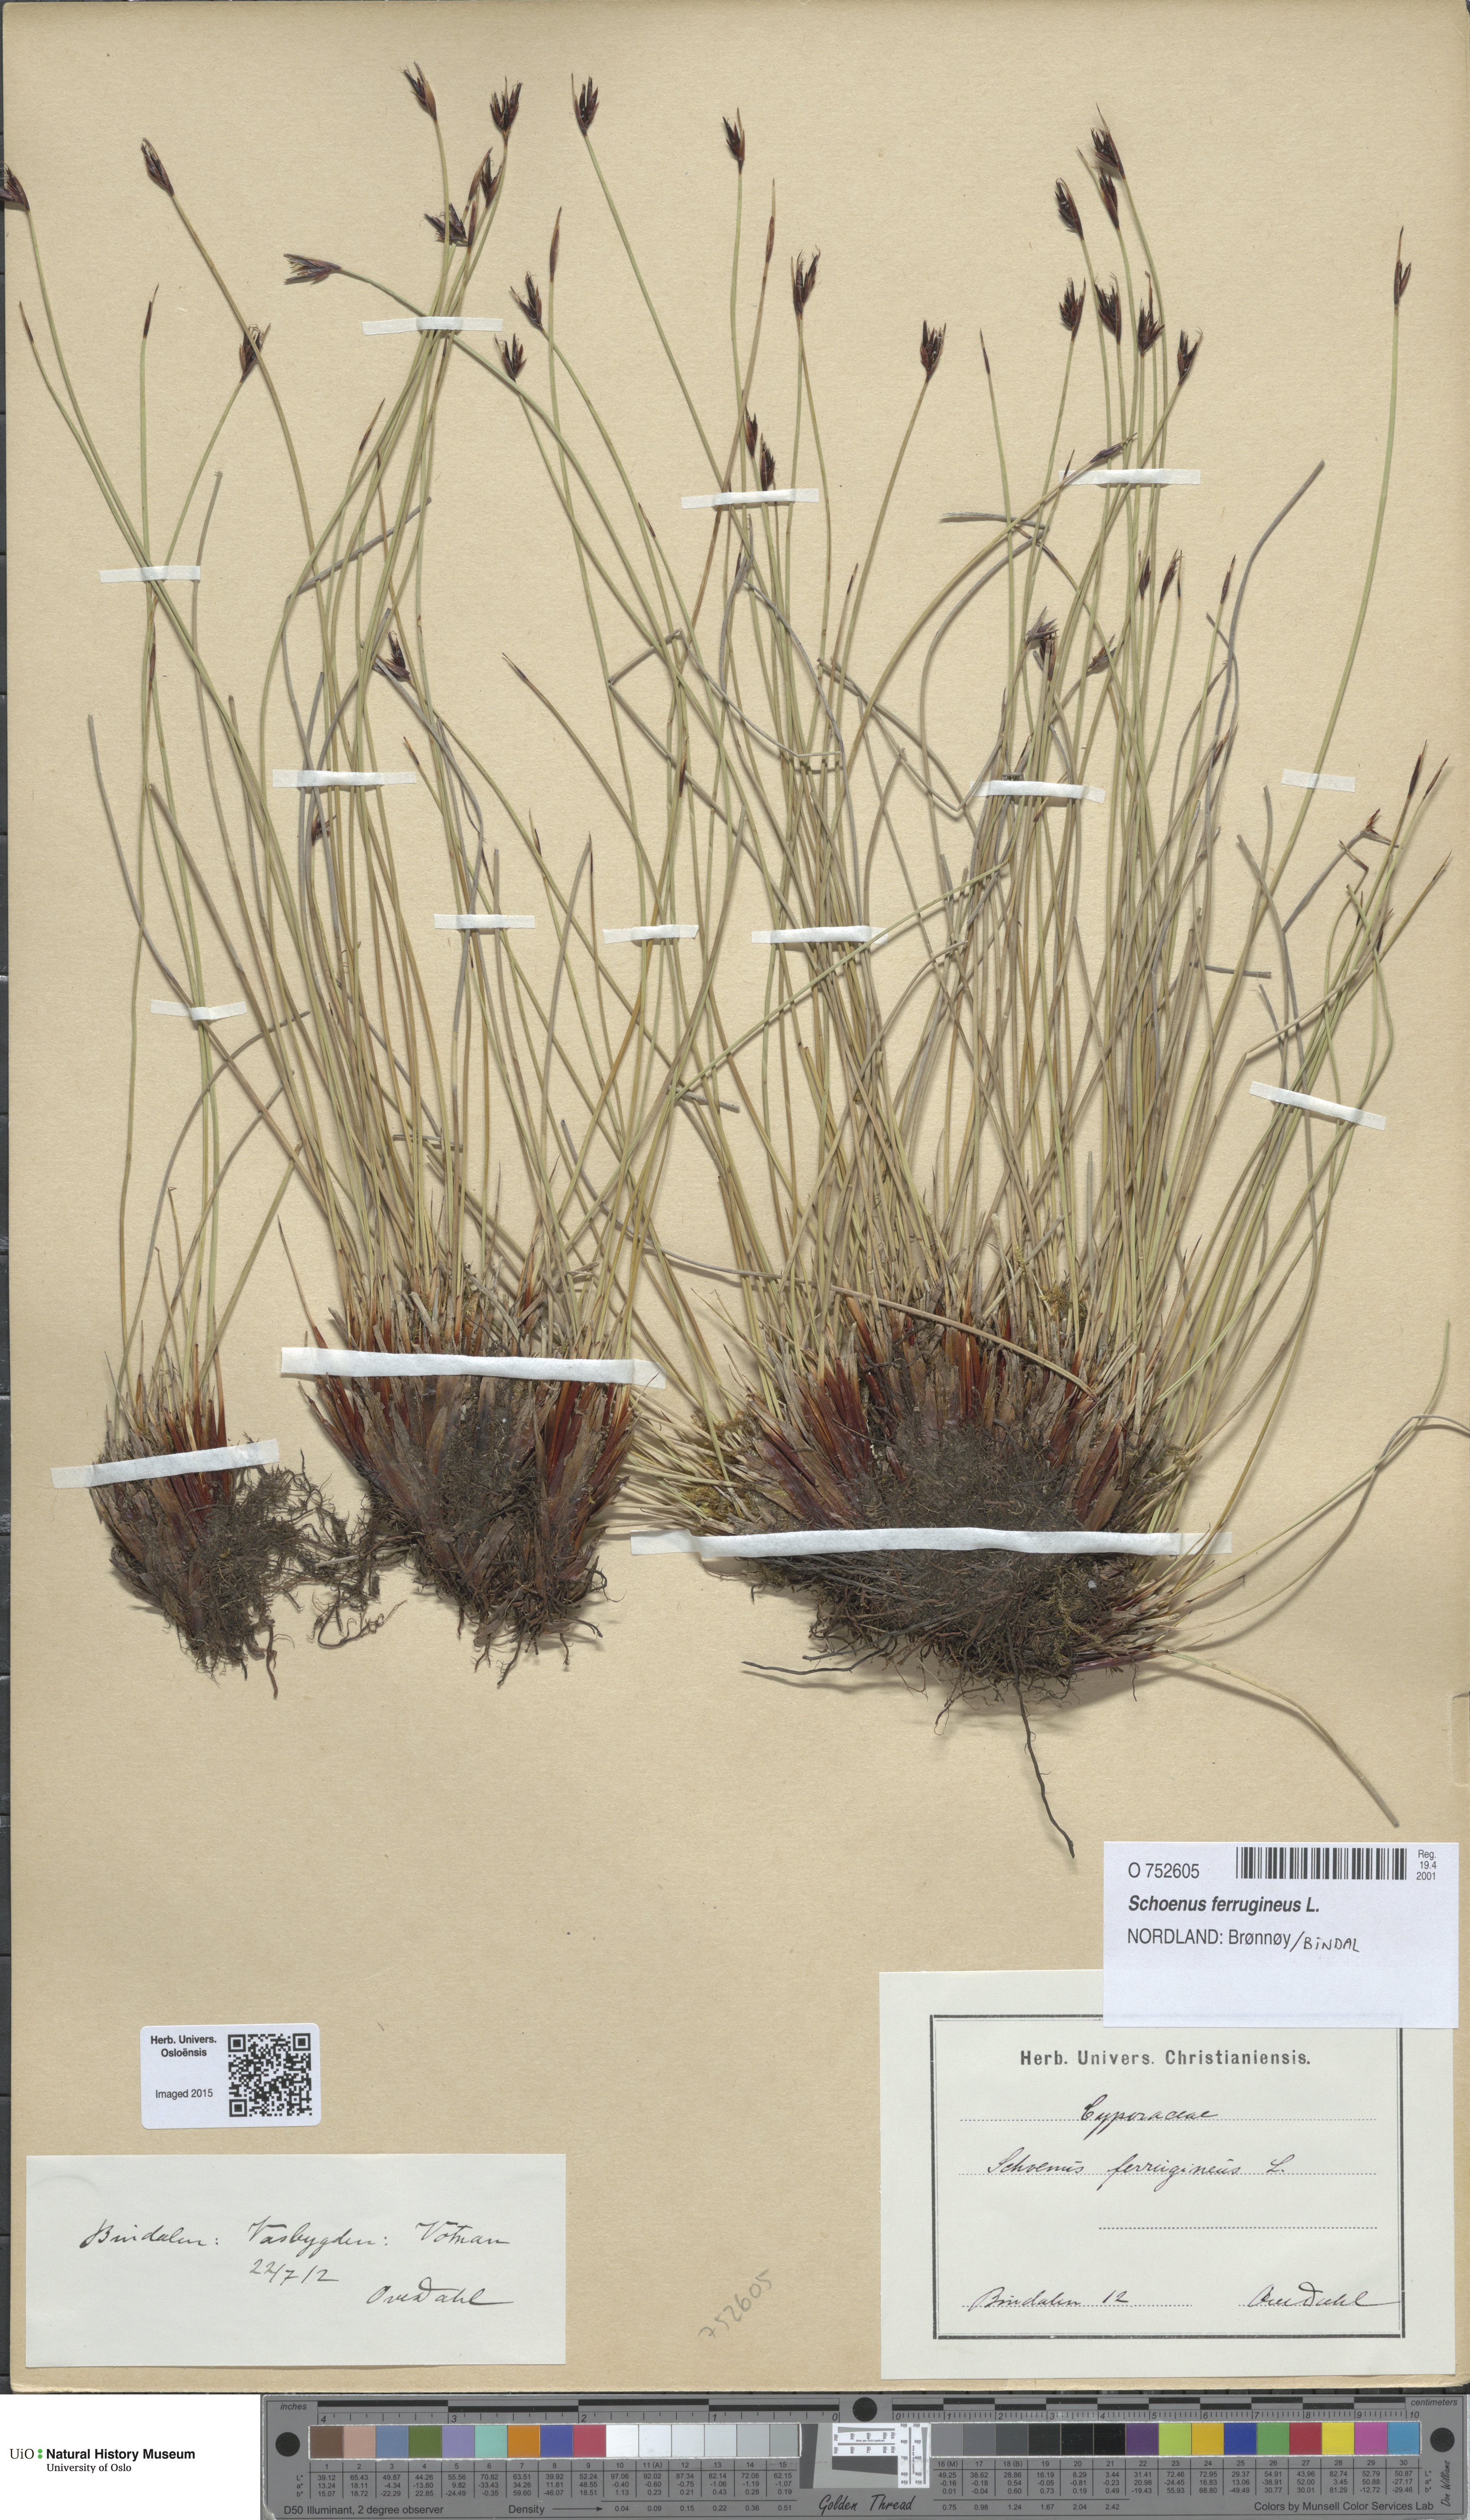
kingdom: Plantae
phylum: Tracheophyta
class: Liliopsida
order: Poales
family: Cyperaceae
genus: Schoenus
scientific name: Schoenus ferrugineus
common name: Brown bog-rush
